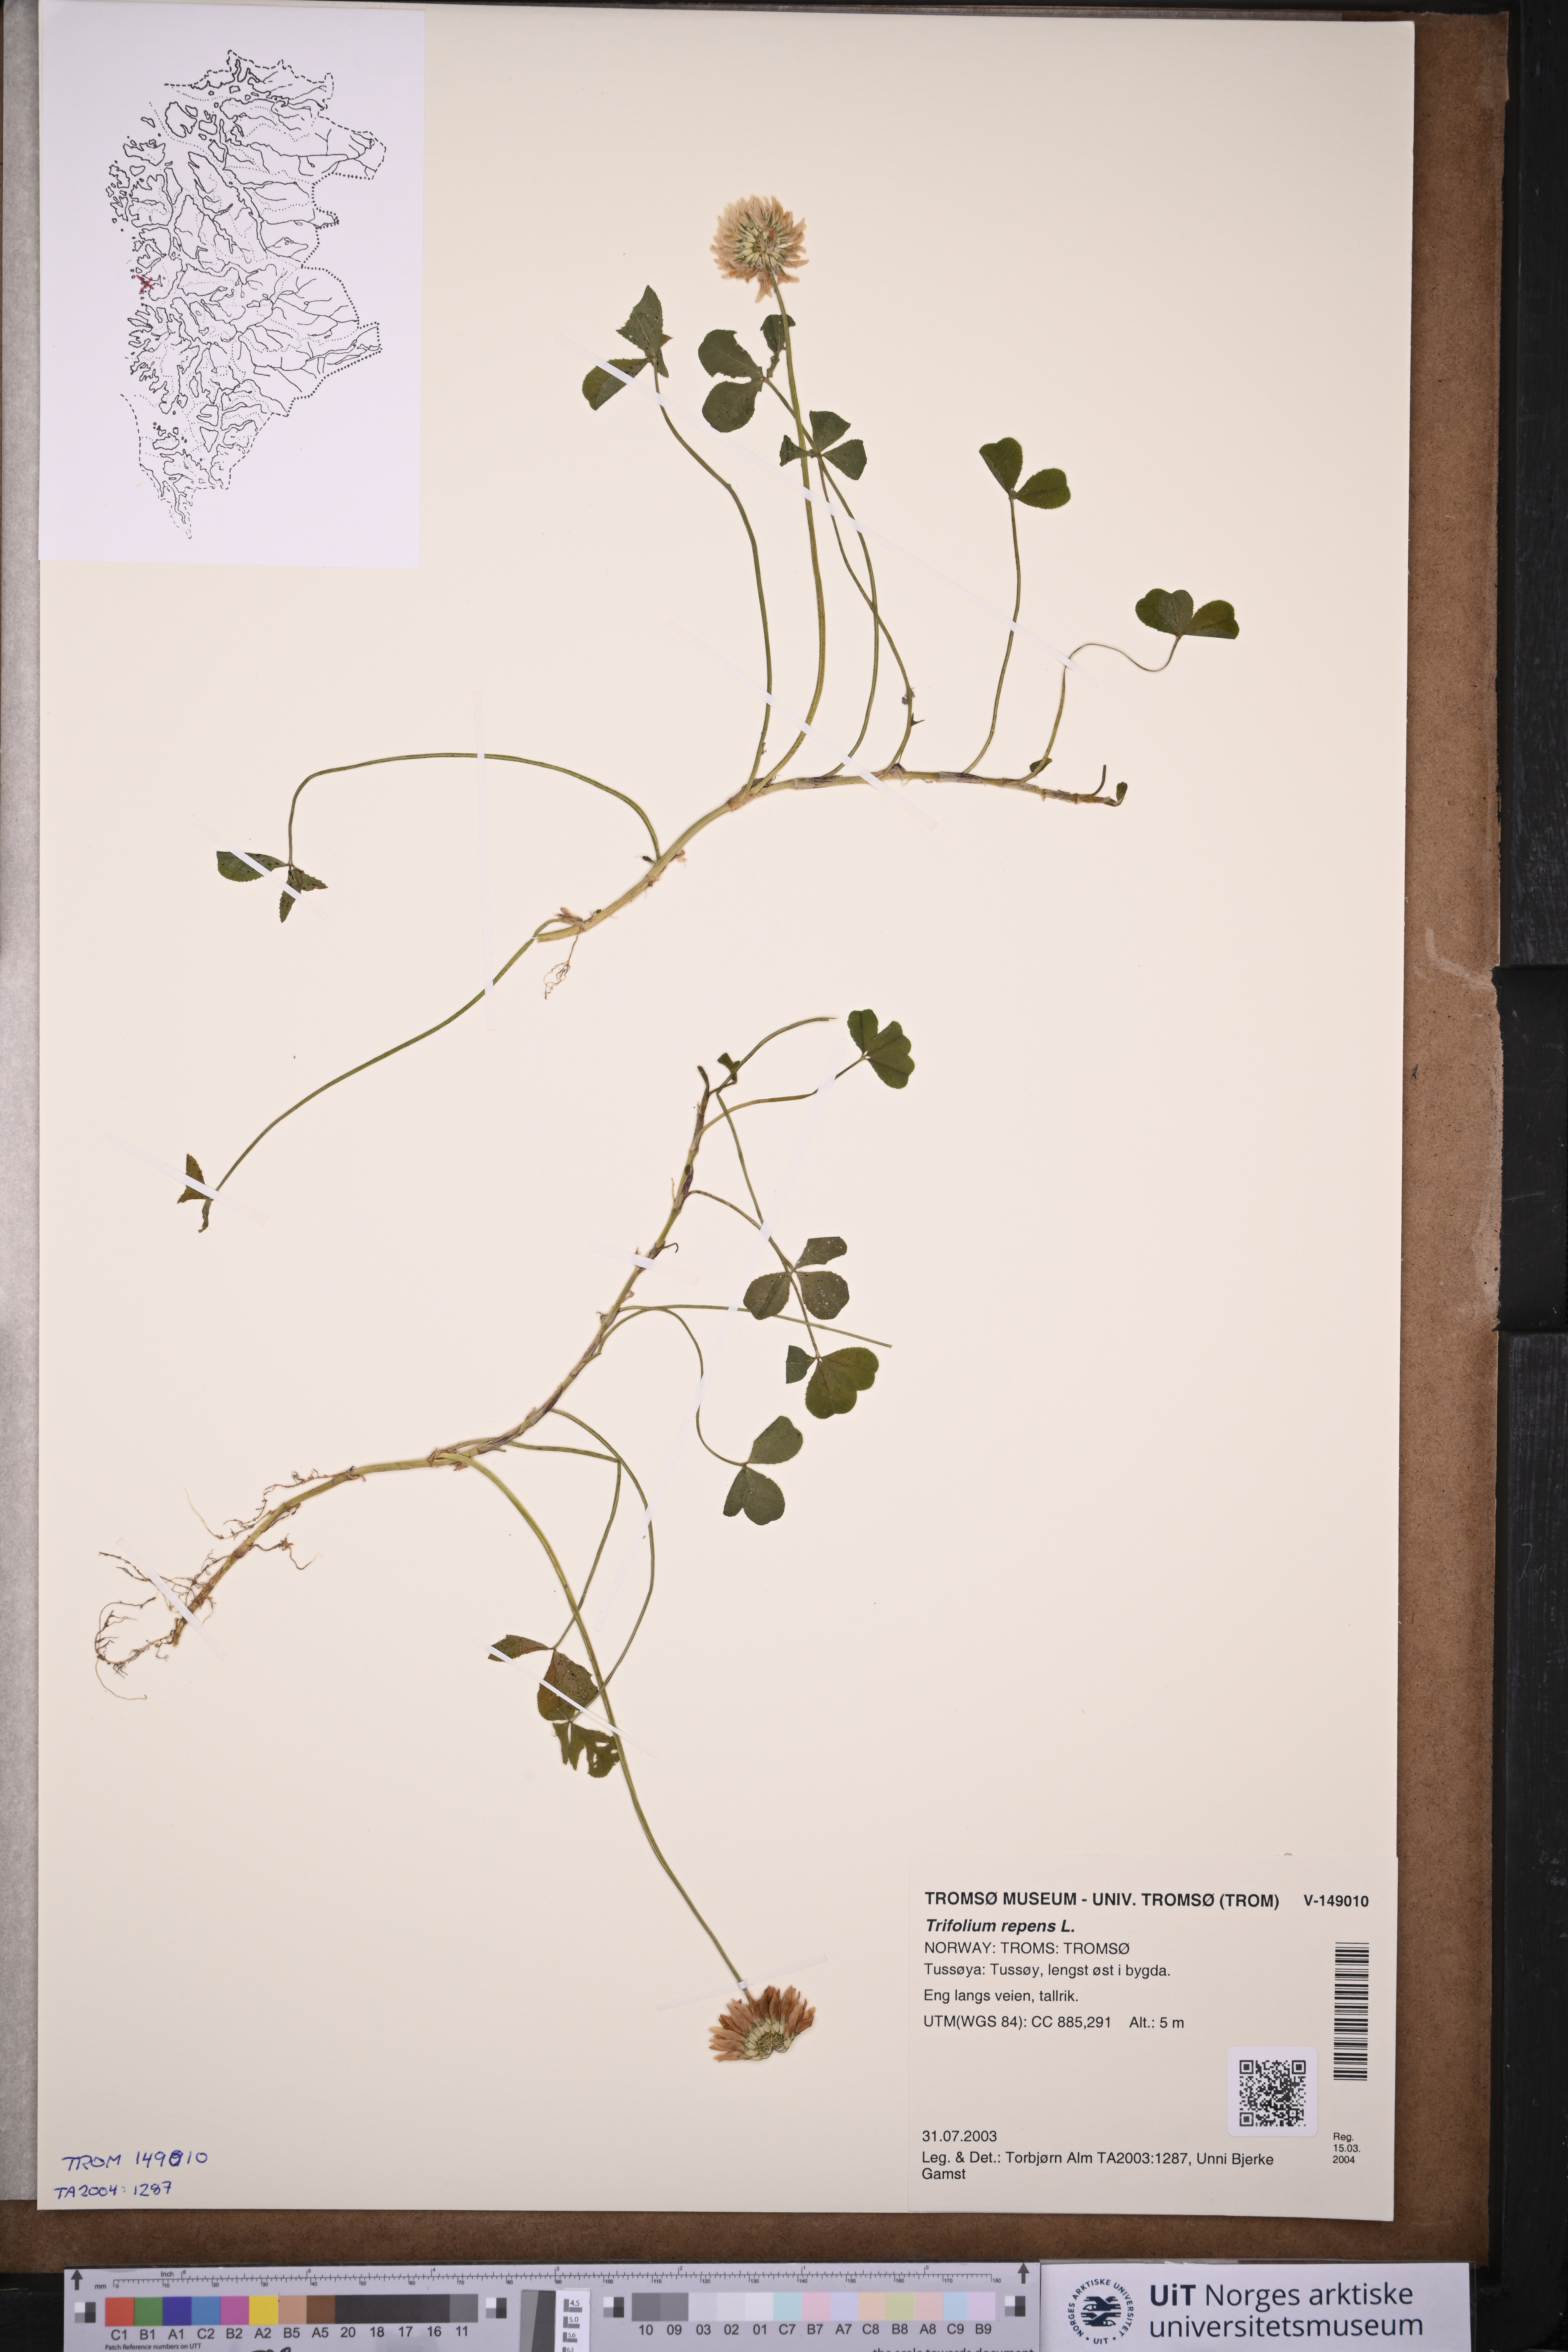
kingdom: Plantae
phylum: Tracheophyta
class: Magnoliopsida
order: Fabales
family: Fabaceae
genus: Trifolium
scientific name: Trifolium repens
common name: White clover
